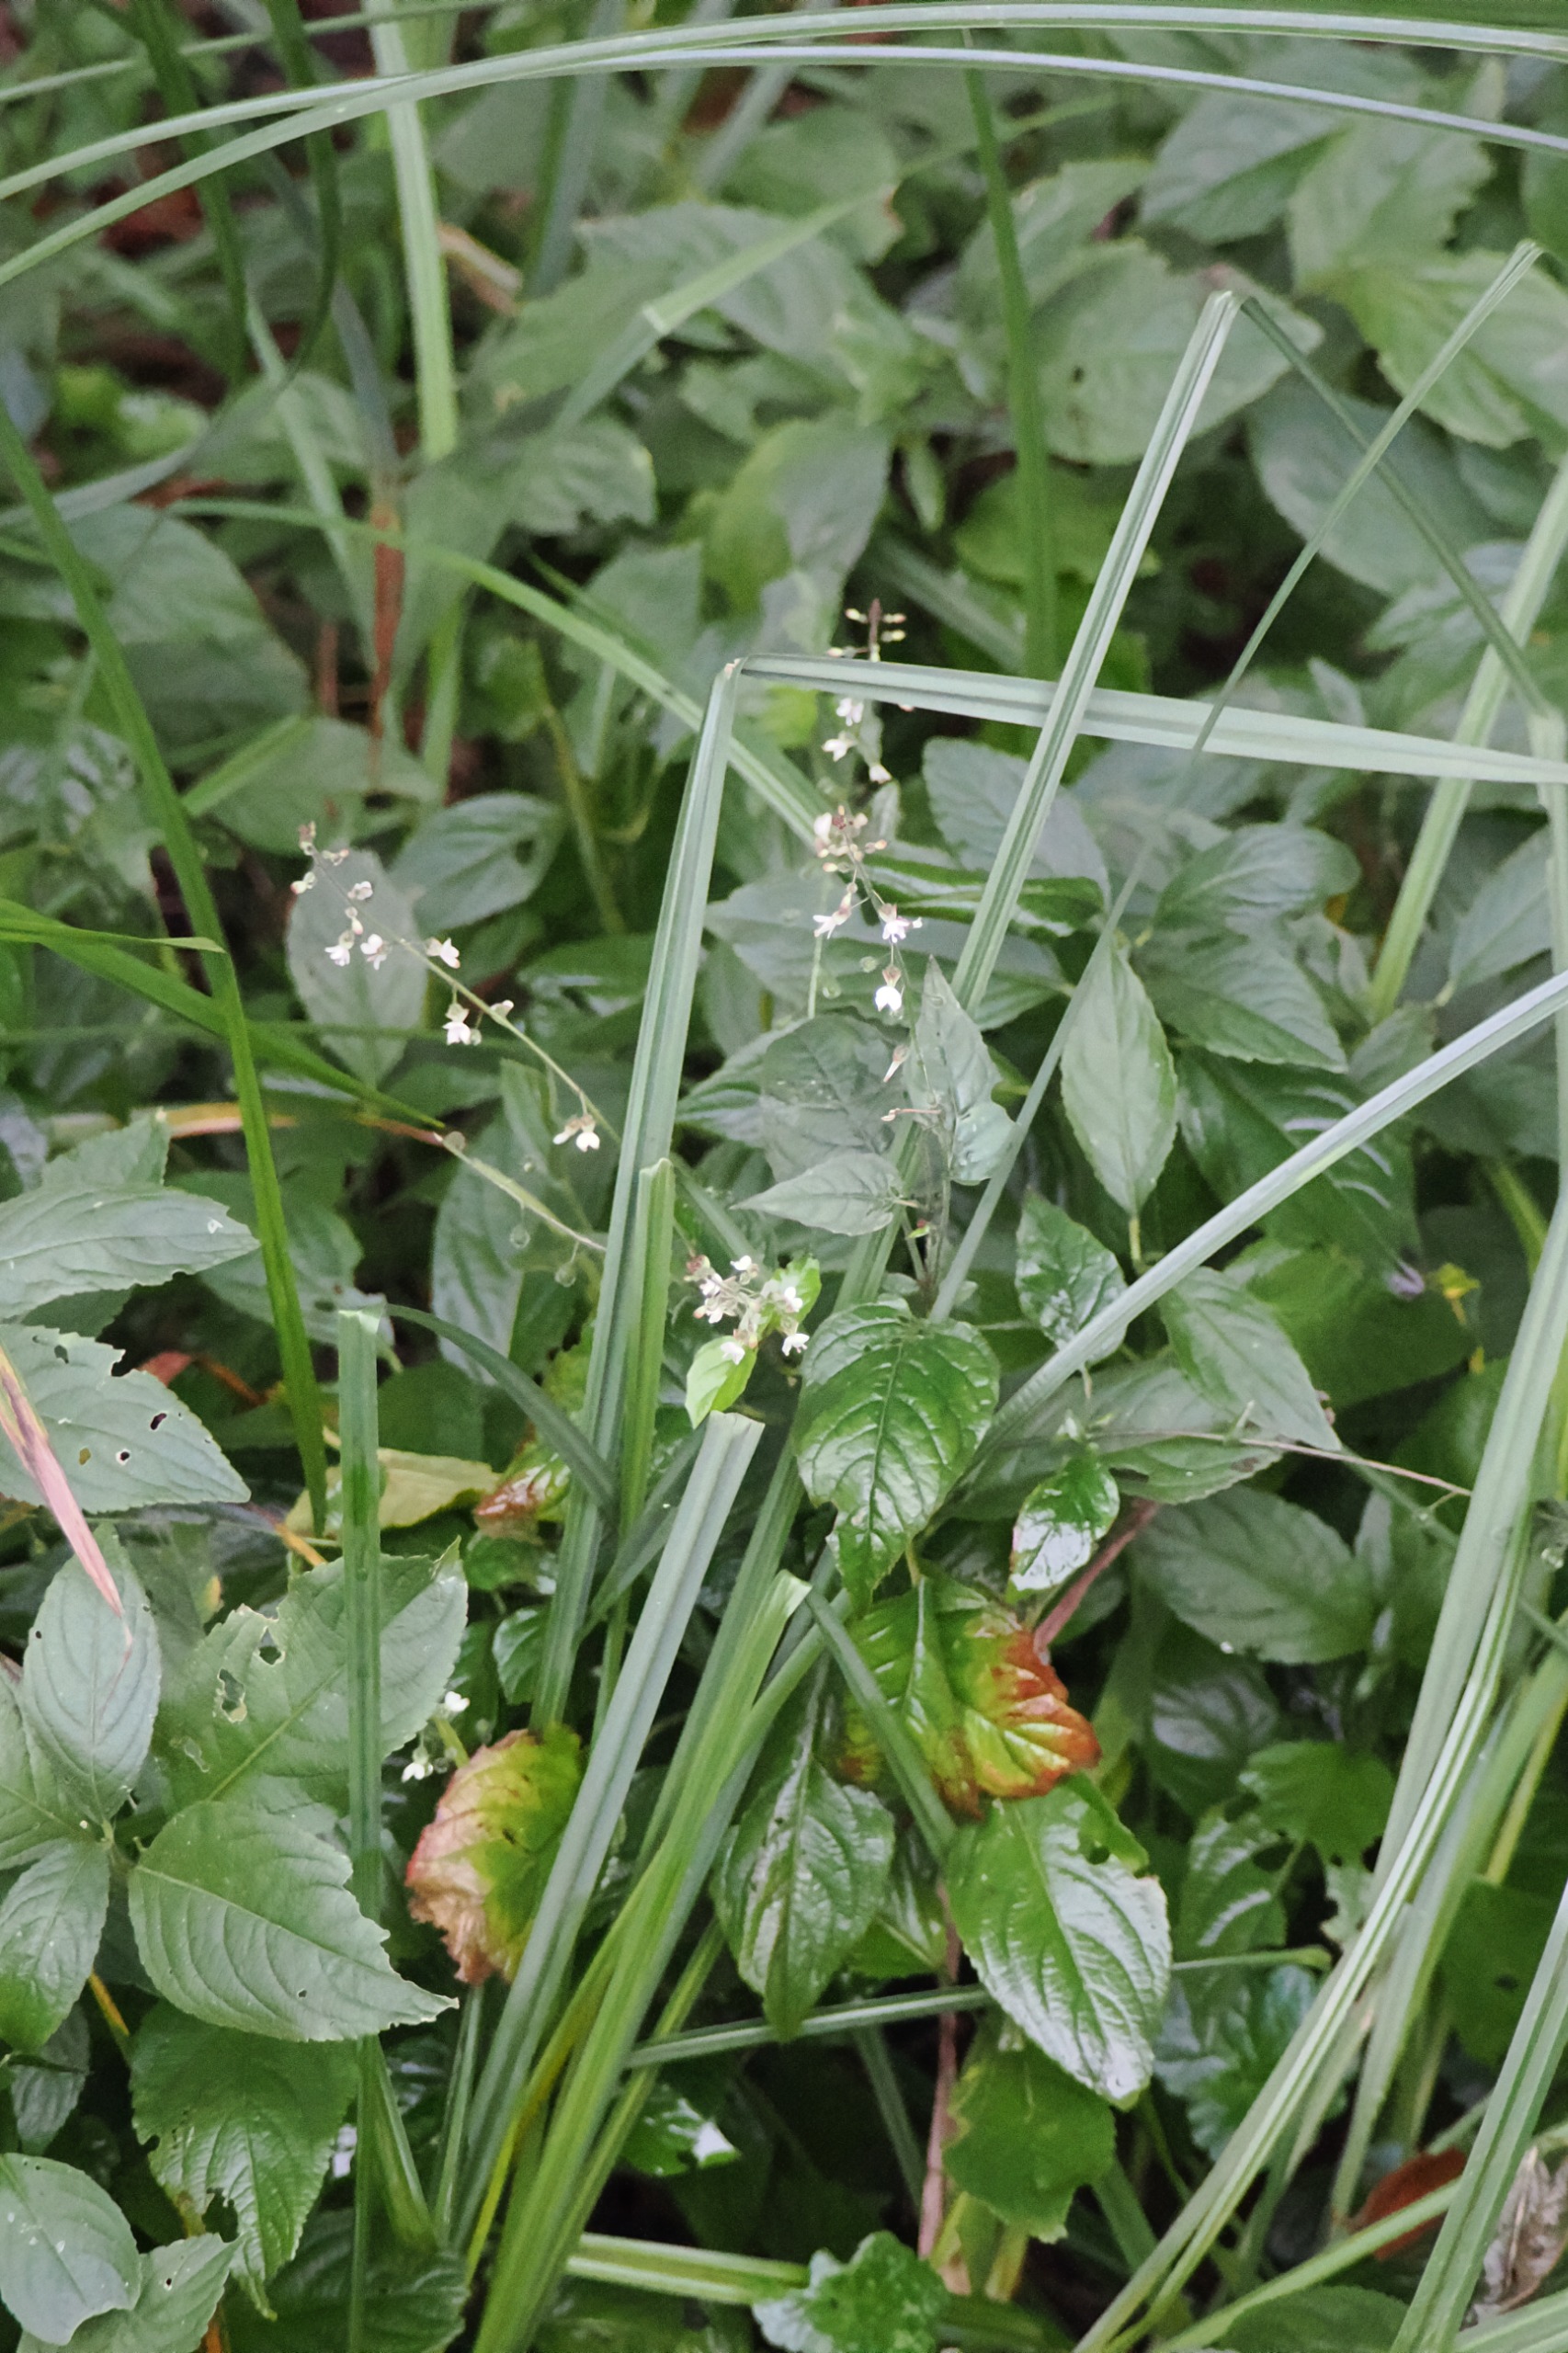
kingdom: Plantae
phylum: Tracheophyta
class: Magnoliopsida
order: Myrtales
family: Onagraceae
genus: Circaea
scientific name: Circaea lutetiana
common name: Dunet steffensurt
